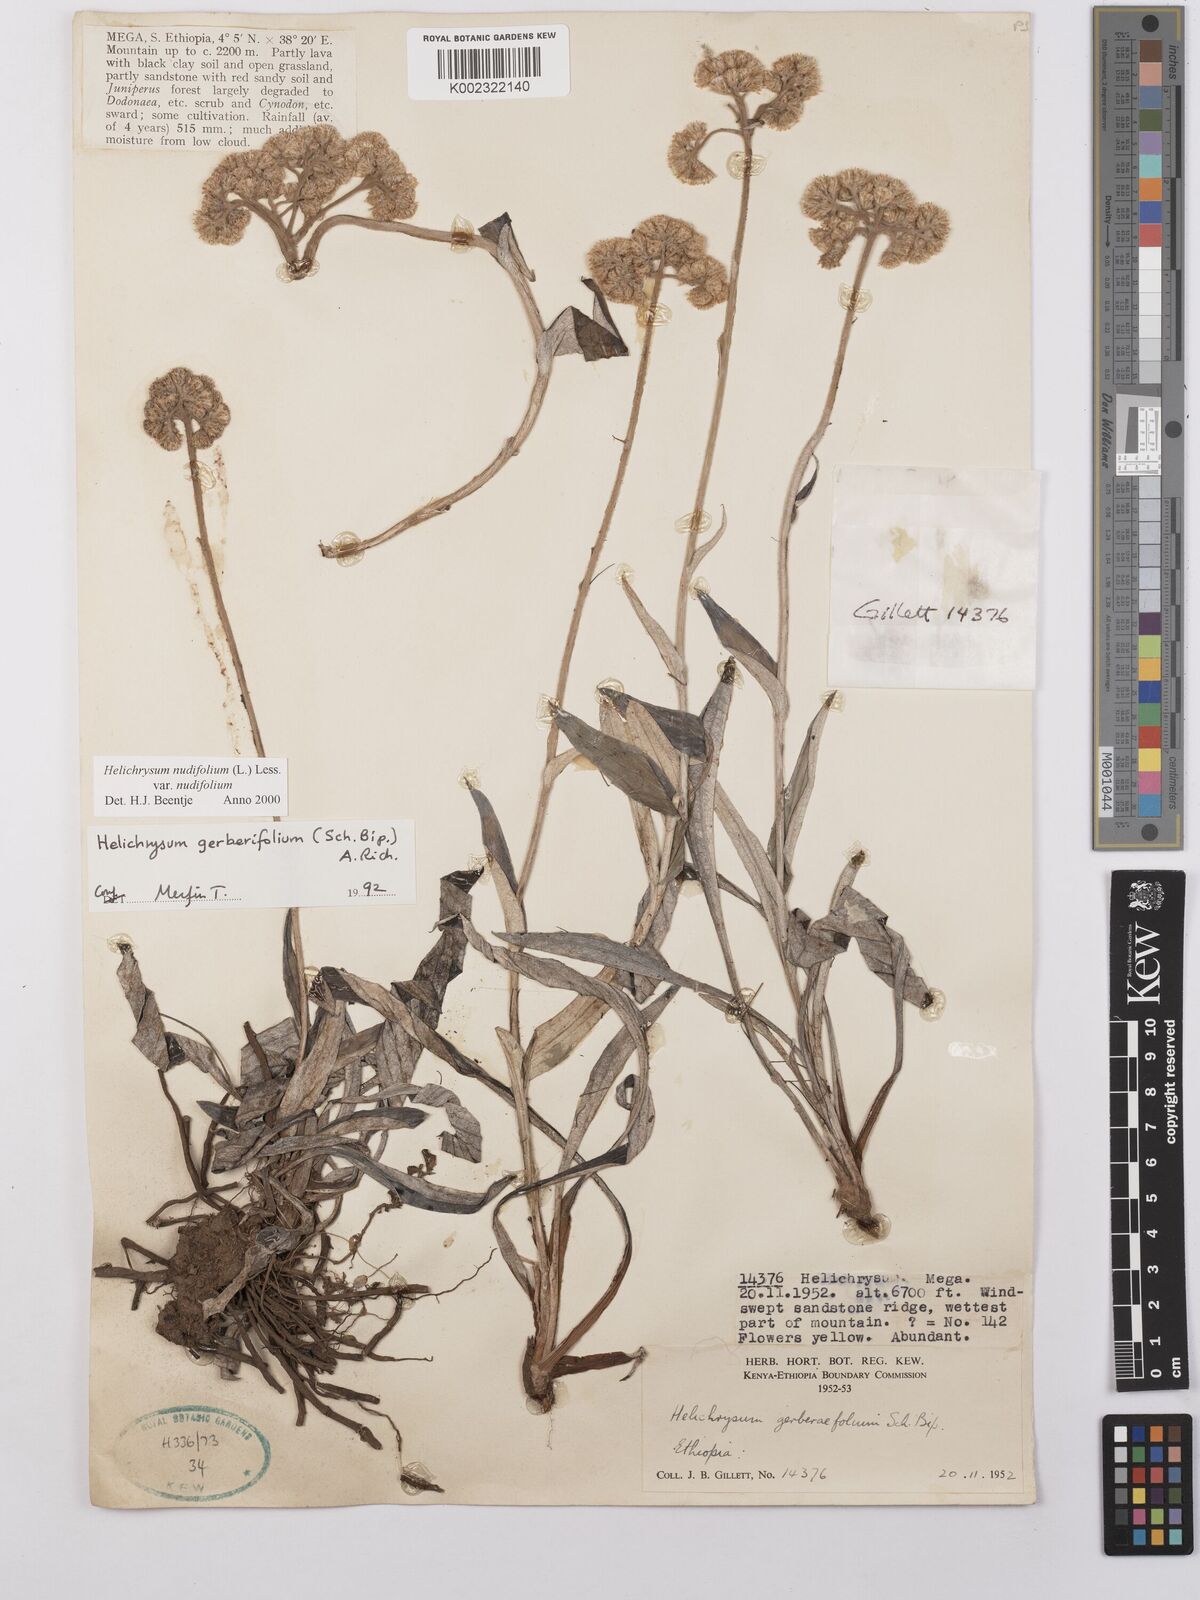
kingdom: Plantae
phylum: Tracheophyta
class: Magnoliopsida
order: Asterales
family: Asteraceae
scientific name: Asteraceae
